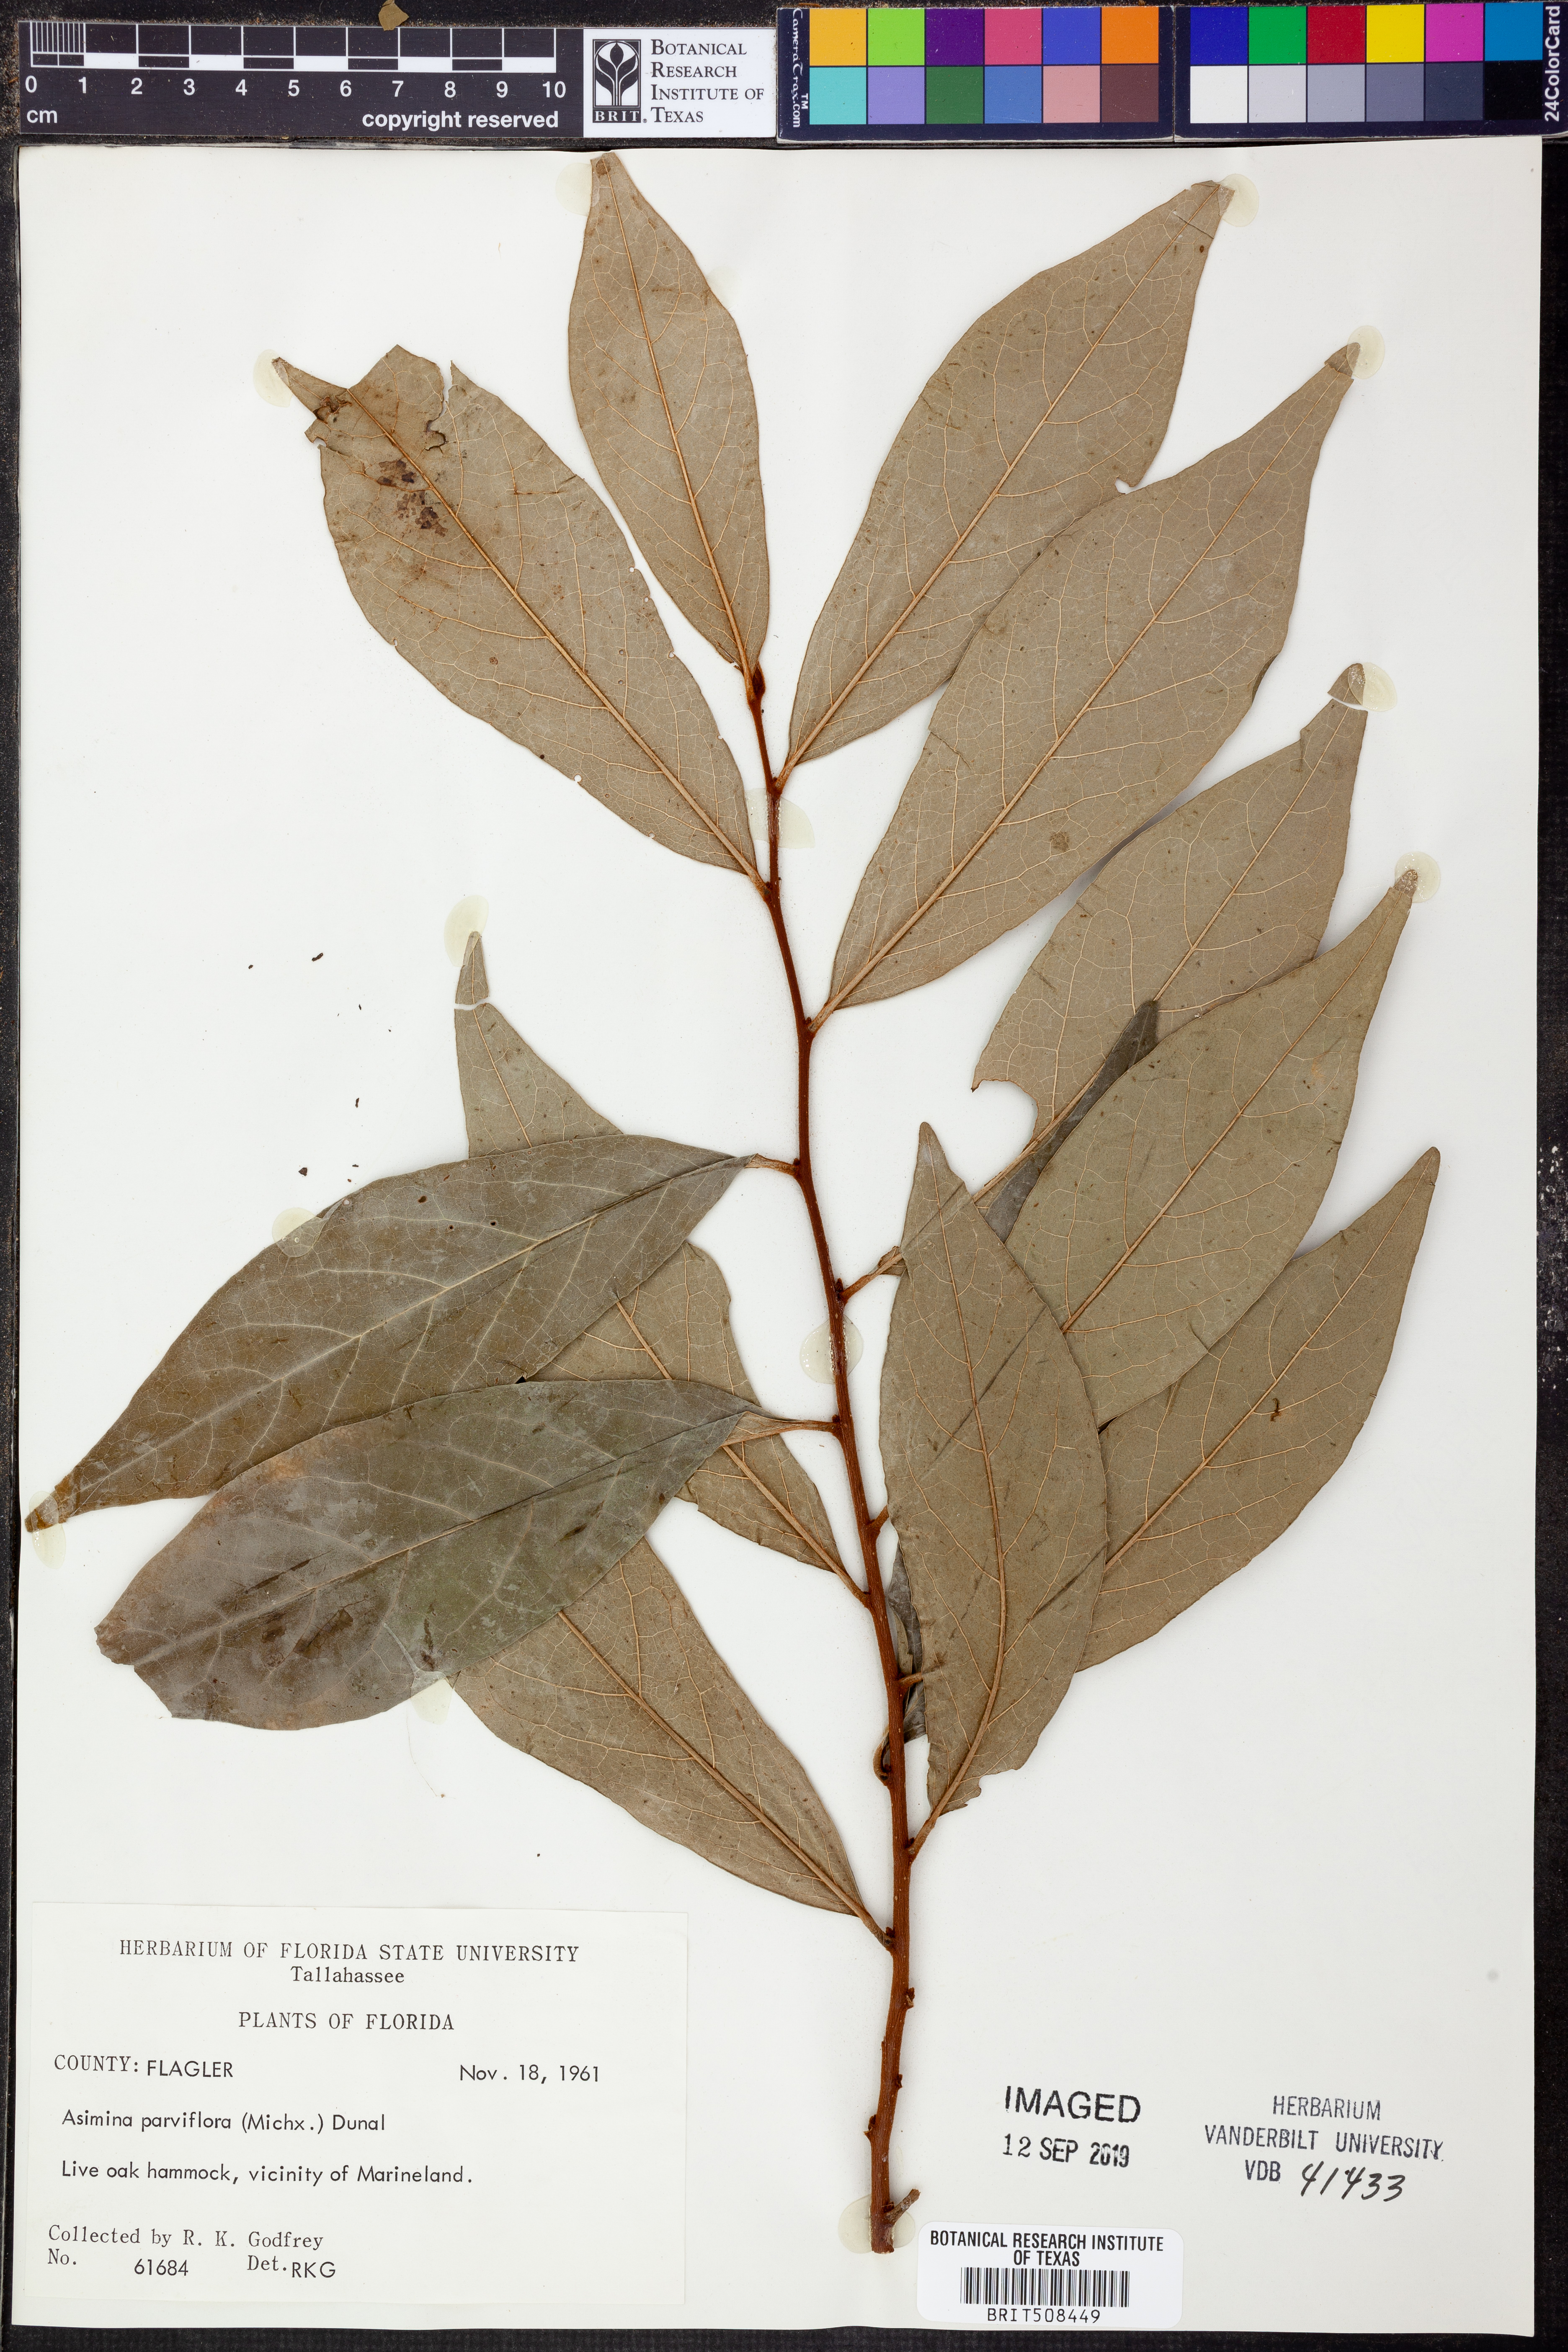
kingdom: Plantae
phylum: Tracheophyta
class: Magnoliopsida
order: Magnoliales
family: Annonaceae
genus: Asimina
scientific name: Asimina parviflora
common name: Dwarf pawpaw
